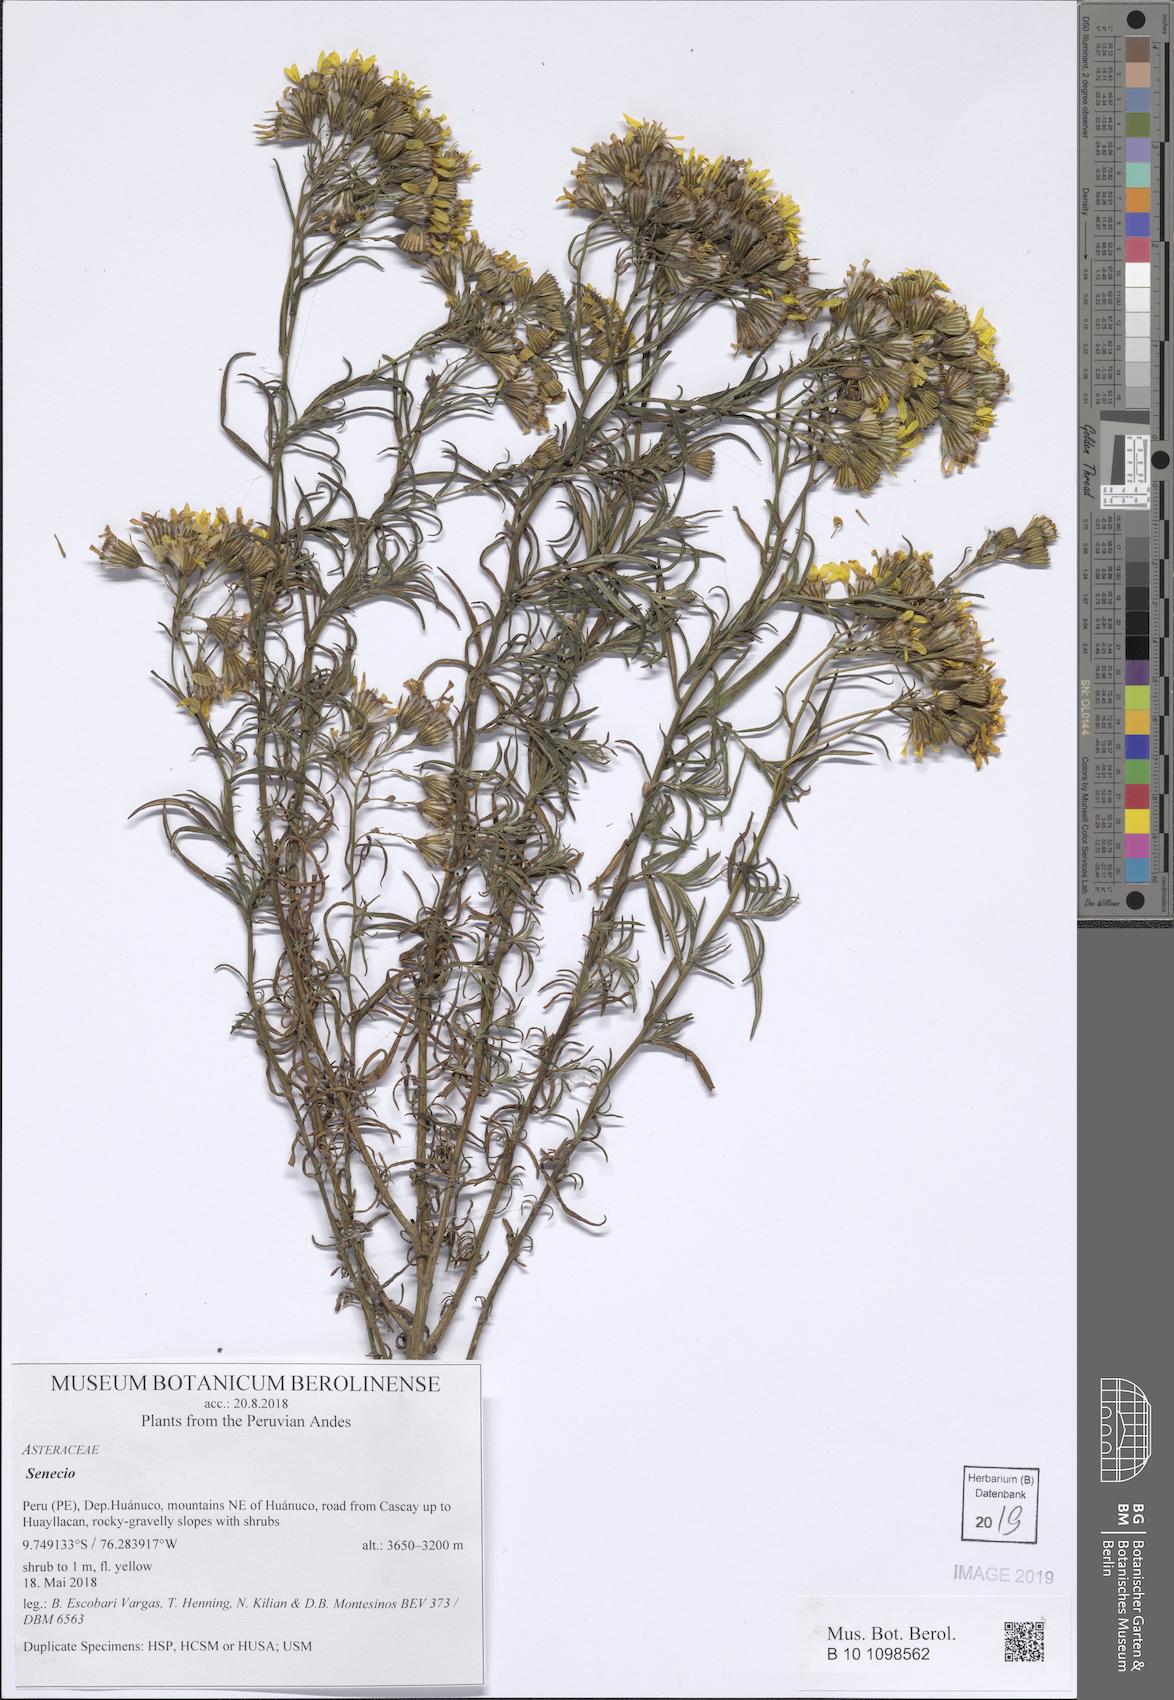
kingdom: Plantae
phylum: Tracheophyta
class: Magnoliopsida
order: Asterales
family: Asteraceae
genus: Senecio
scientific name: Senecio melanocalyx
